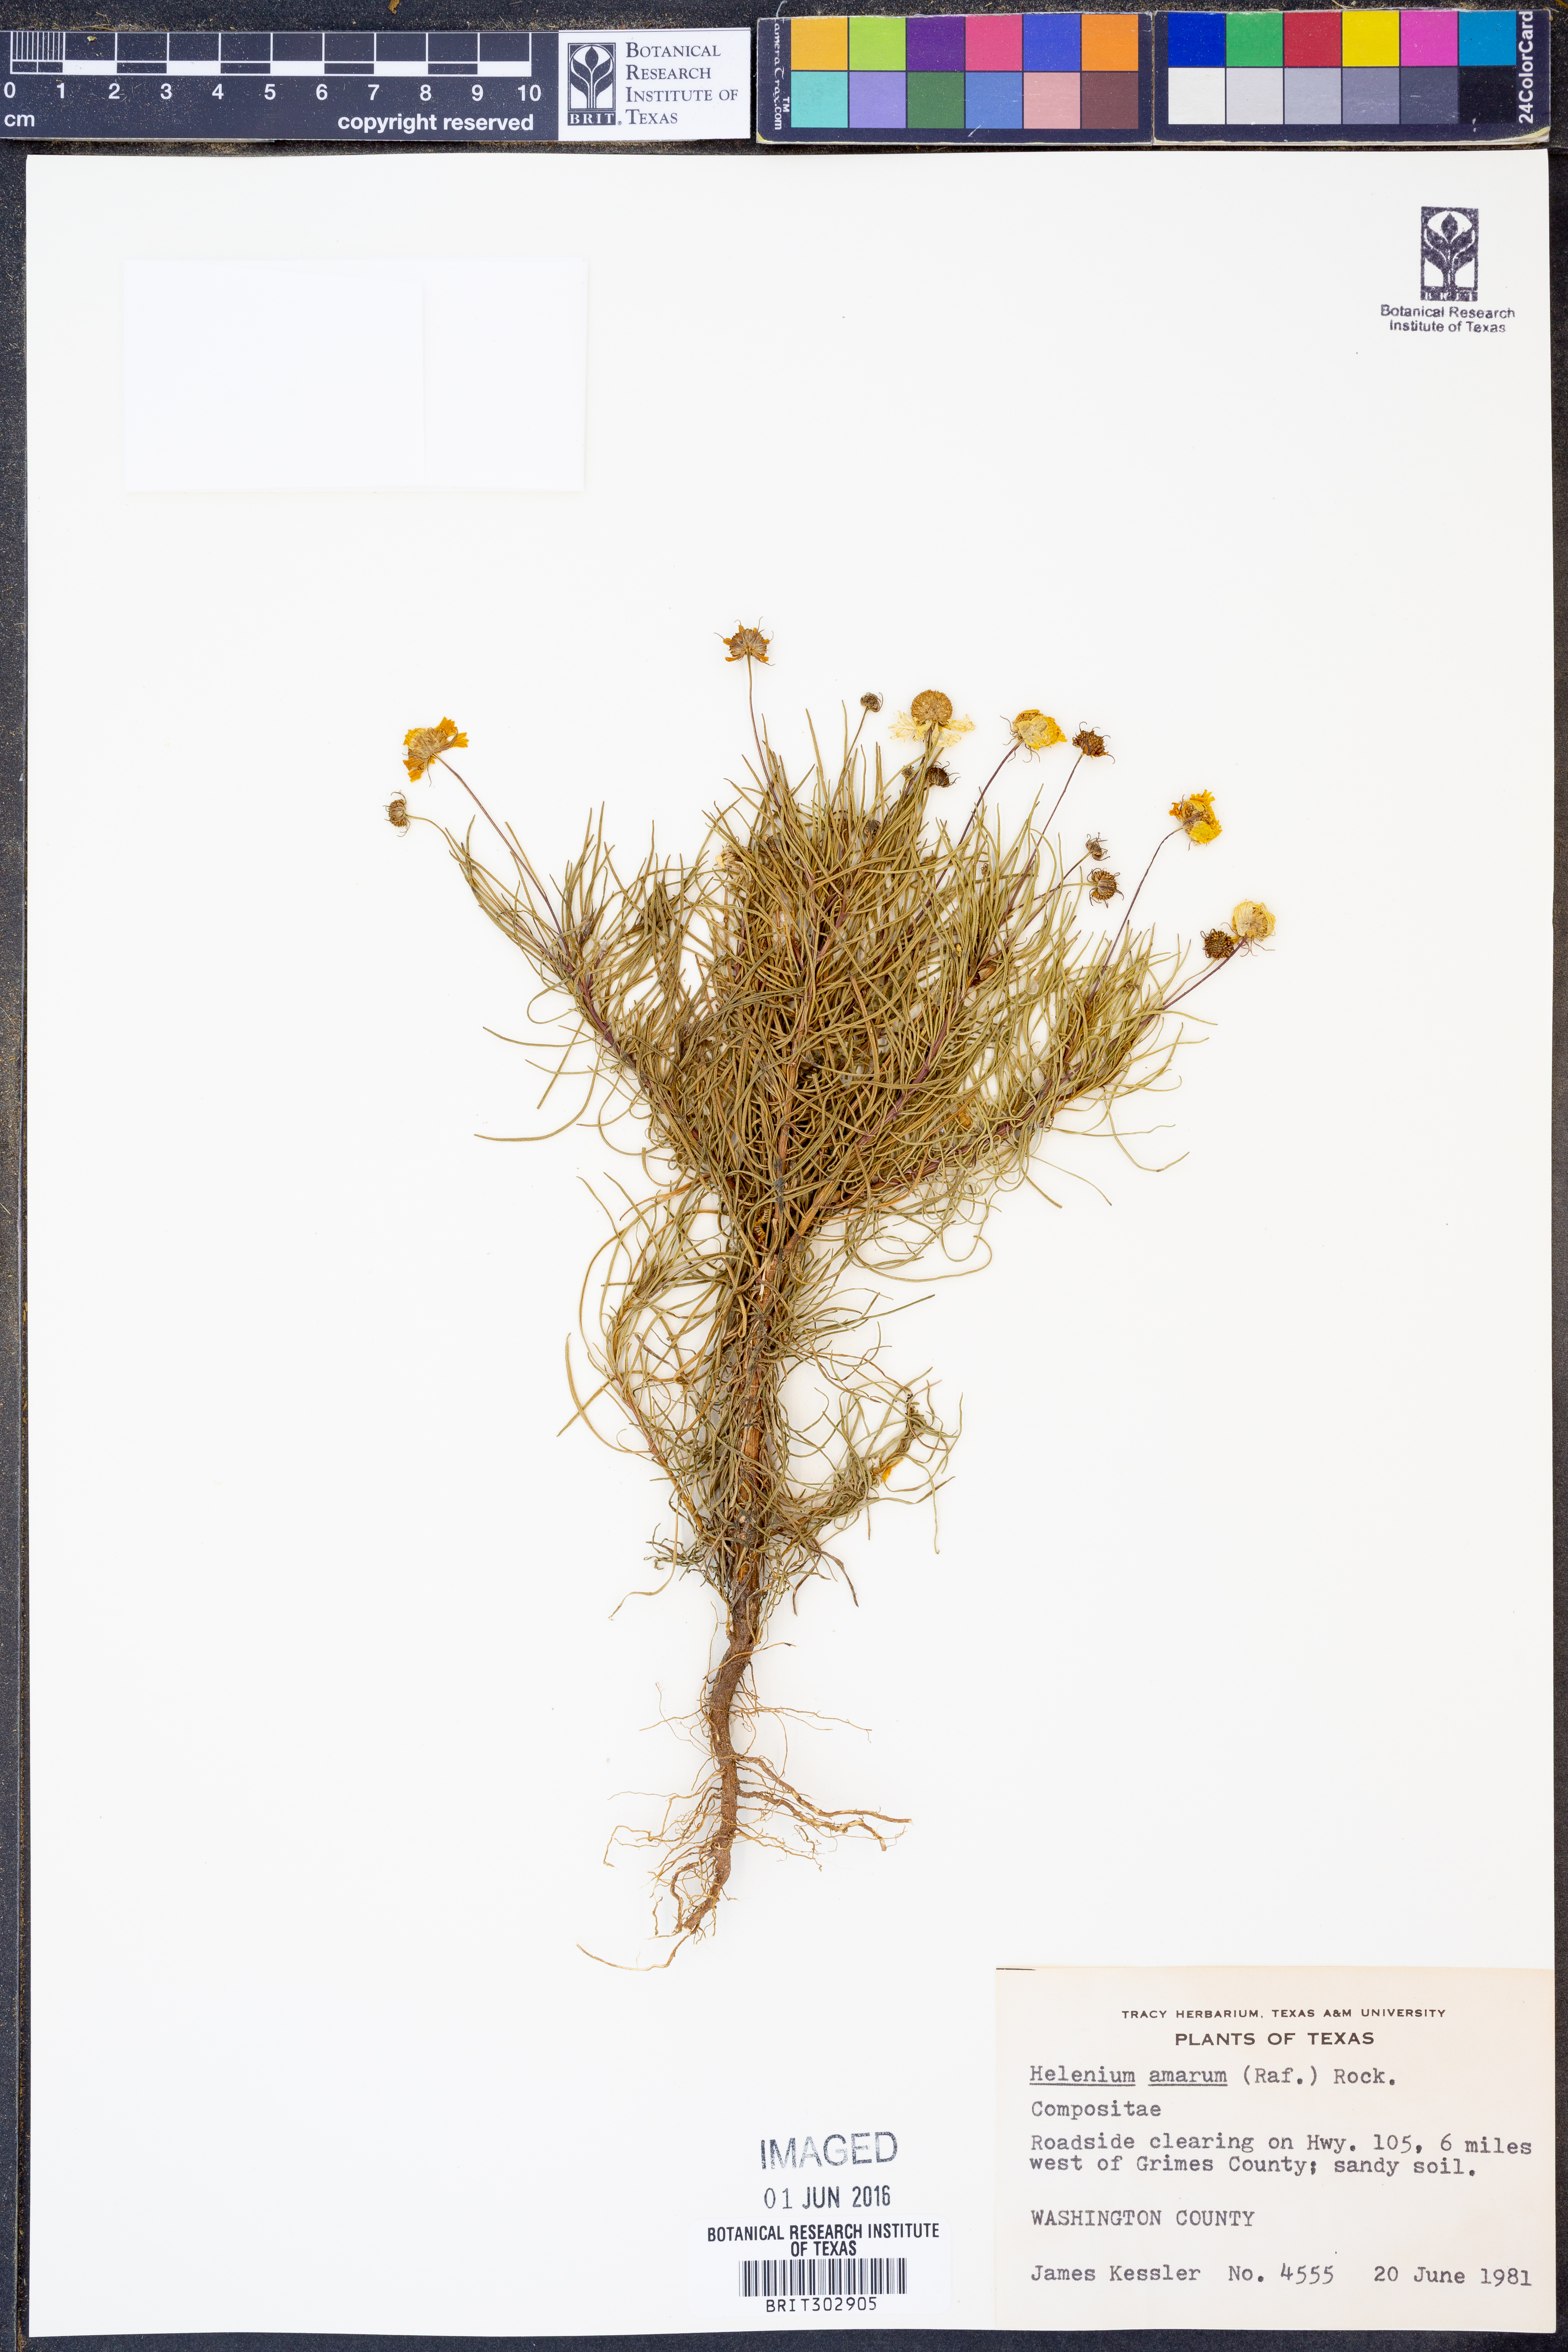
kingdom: Plantae
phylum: Tracheophyta
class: Magnoliopsida
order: Asterales
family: Asteraceae
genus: Helenium
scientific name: Helenium amarum
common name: Bitter sneezeweed
